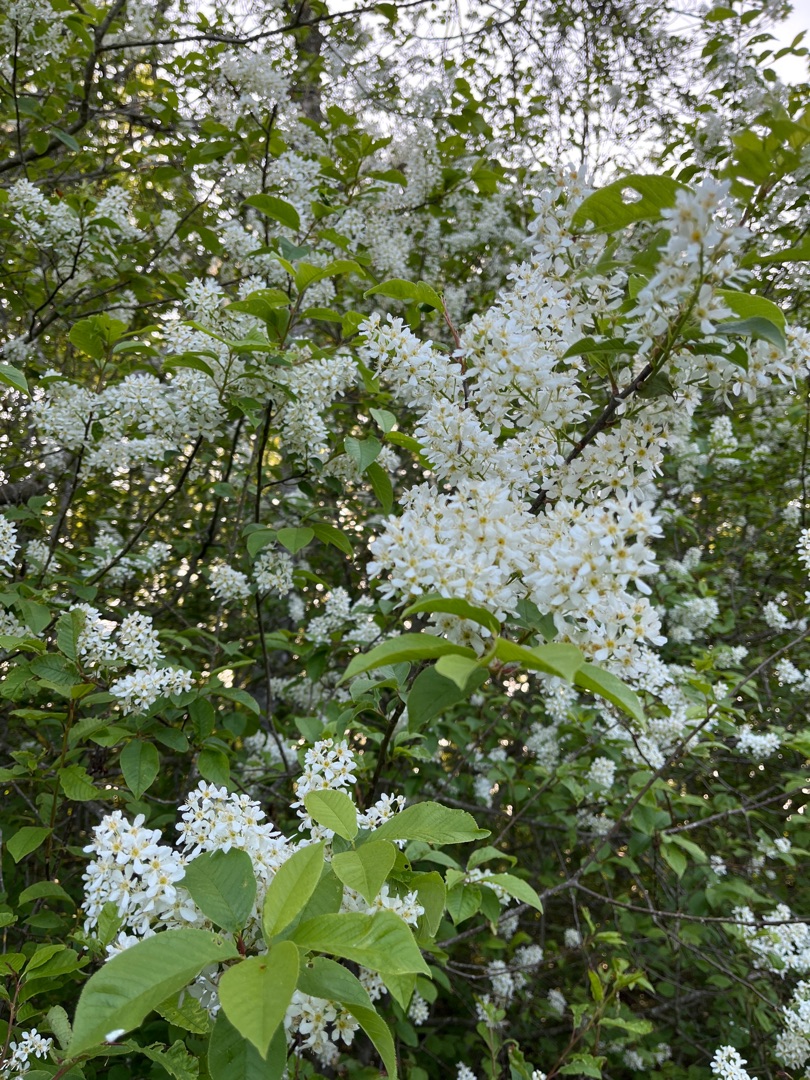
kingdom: Plantae
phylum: Tracheophyta
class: Magnoliopsida
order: Rosales
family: Rosaceae
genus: Prunus
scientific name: Prunus padus
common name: Almindelig hæg
